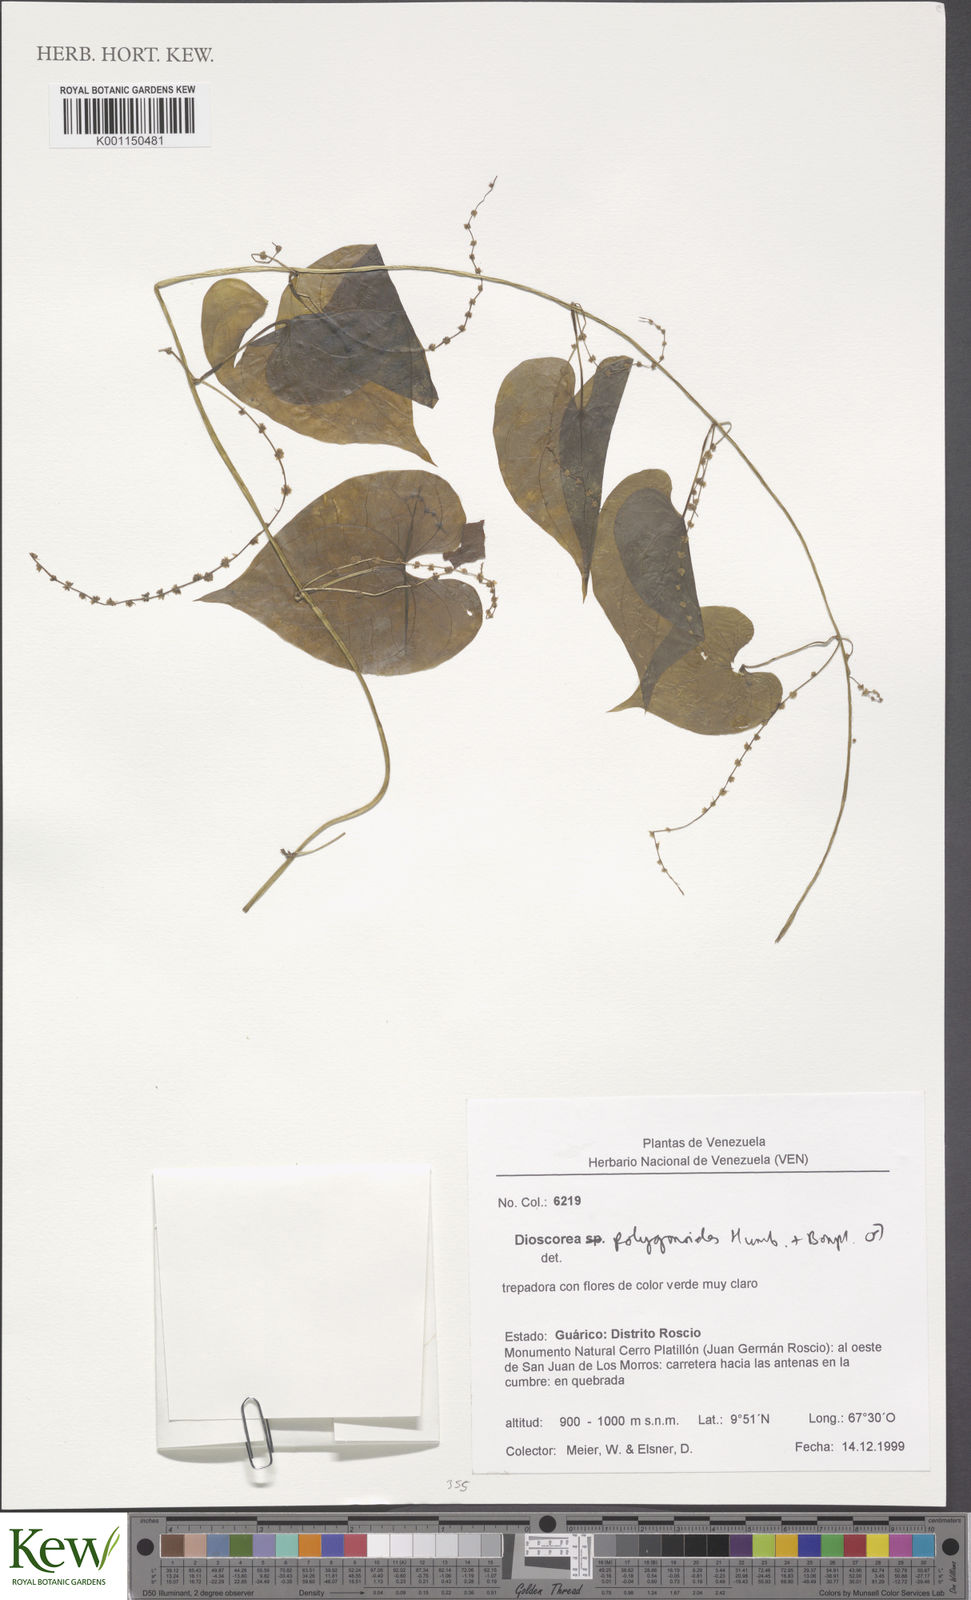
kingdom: Plantae
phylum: Tracheophyta
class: Liliopsida
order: Dioscoreales
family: Dioscoreaceae
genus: Dioscorea
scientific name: Dioscorea polygonoides
